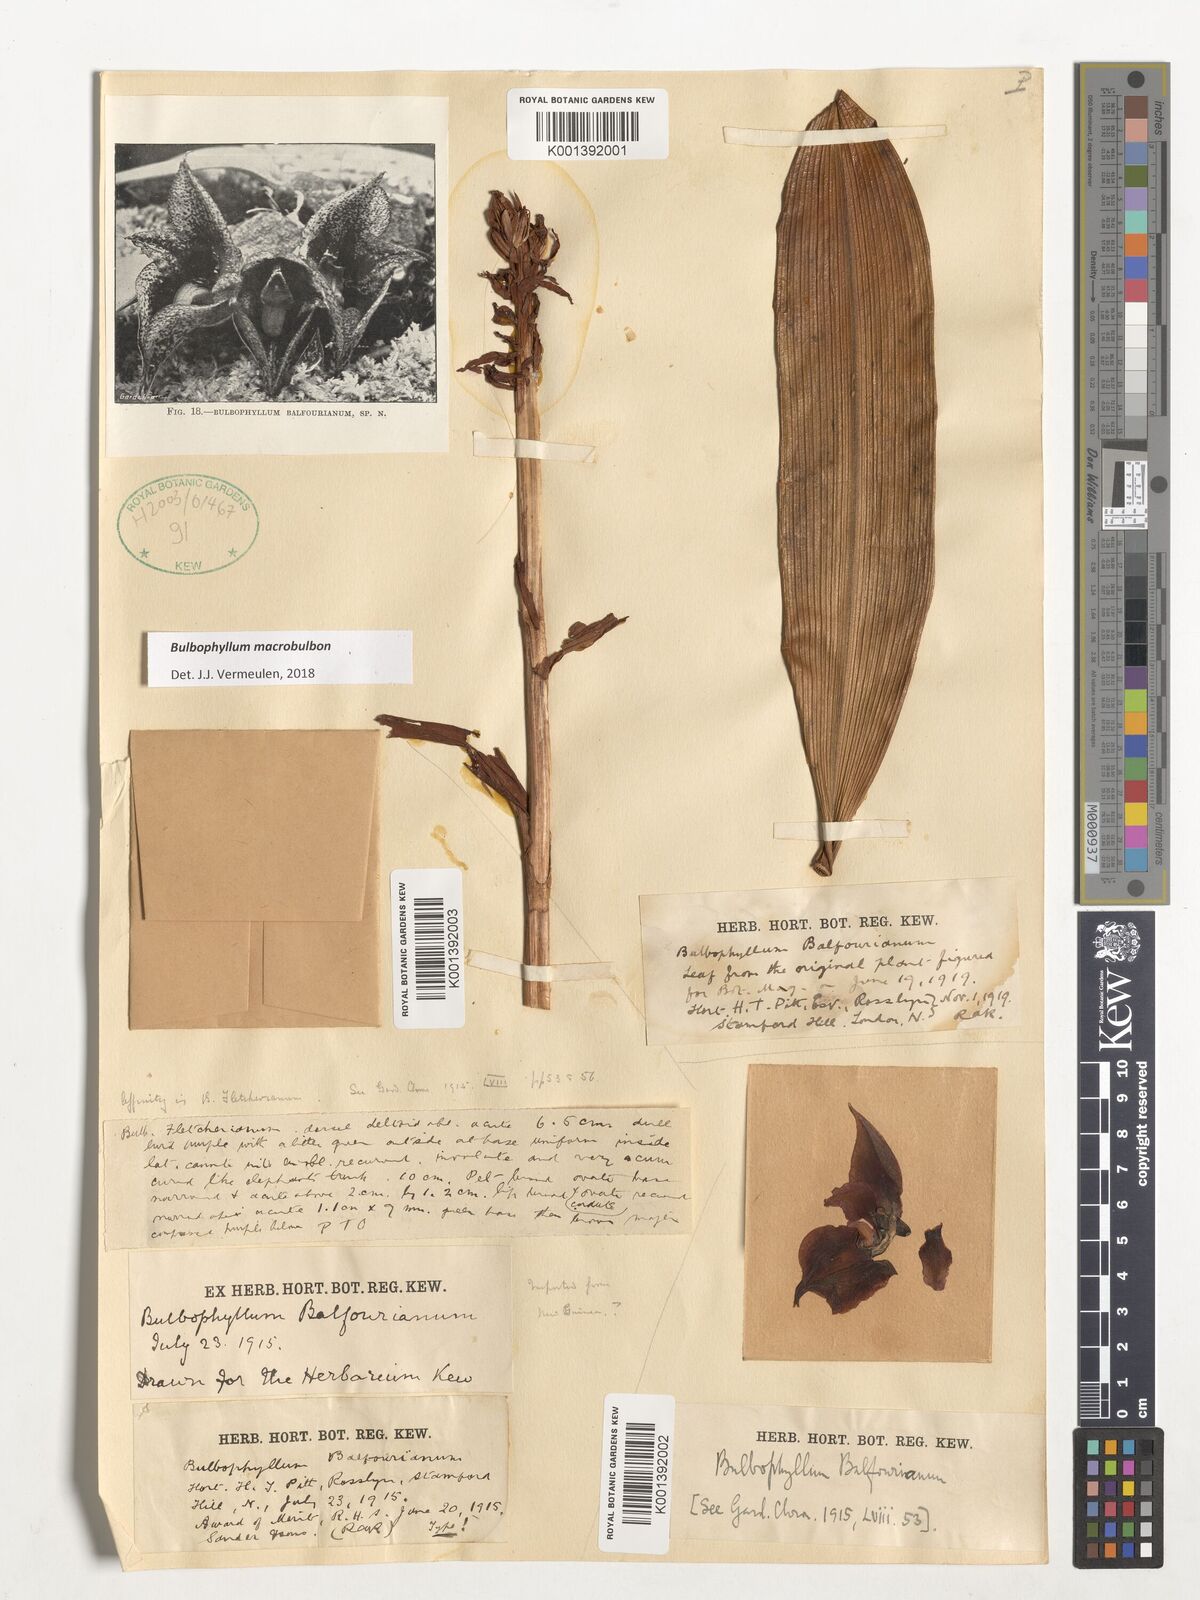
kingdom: Plantae
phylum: Tracheophyta
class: Liliopsida
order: Asparagales
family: Orchidaceae
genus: Bulbophyllum
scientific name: Bulbophyllum macrobulbon
